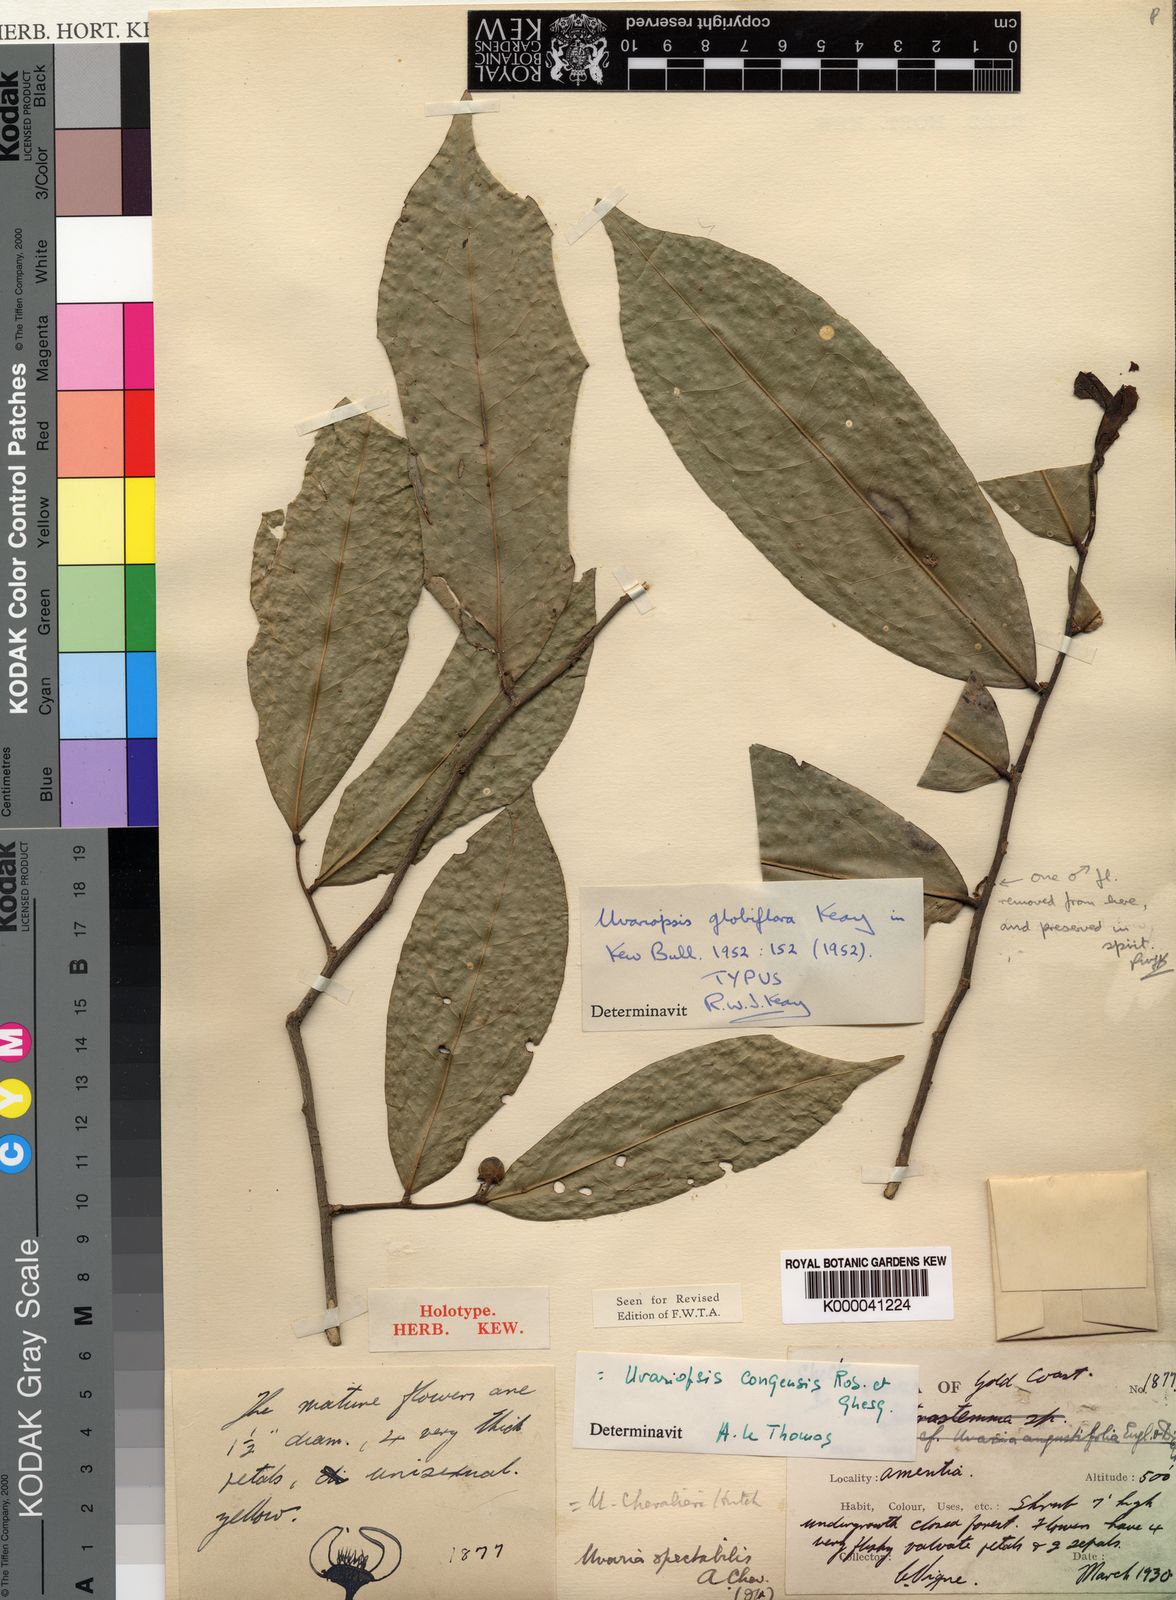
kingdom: Plantae
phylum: Tracheophyta
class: Magnoliopsida
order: Magnoliales
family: Annonaceae
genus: Uvaria
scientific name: Uvaria
